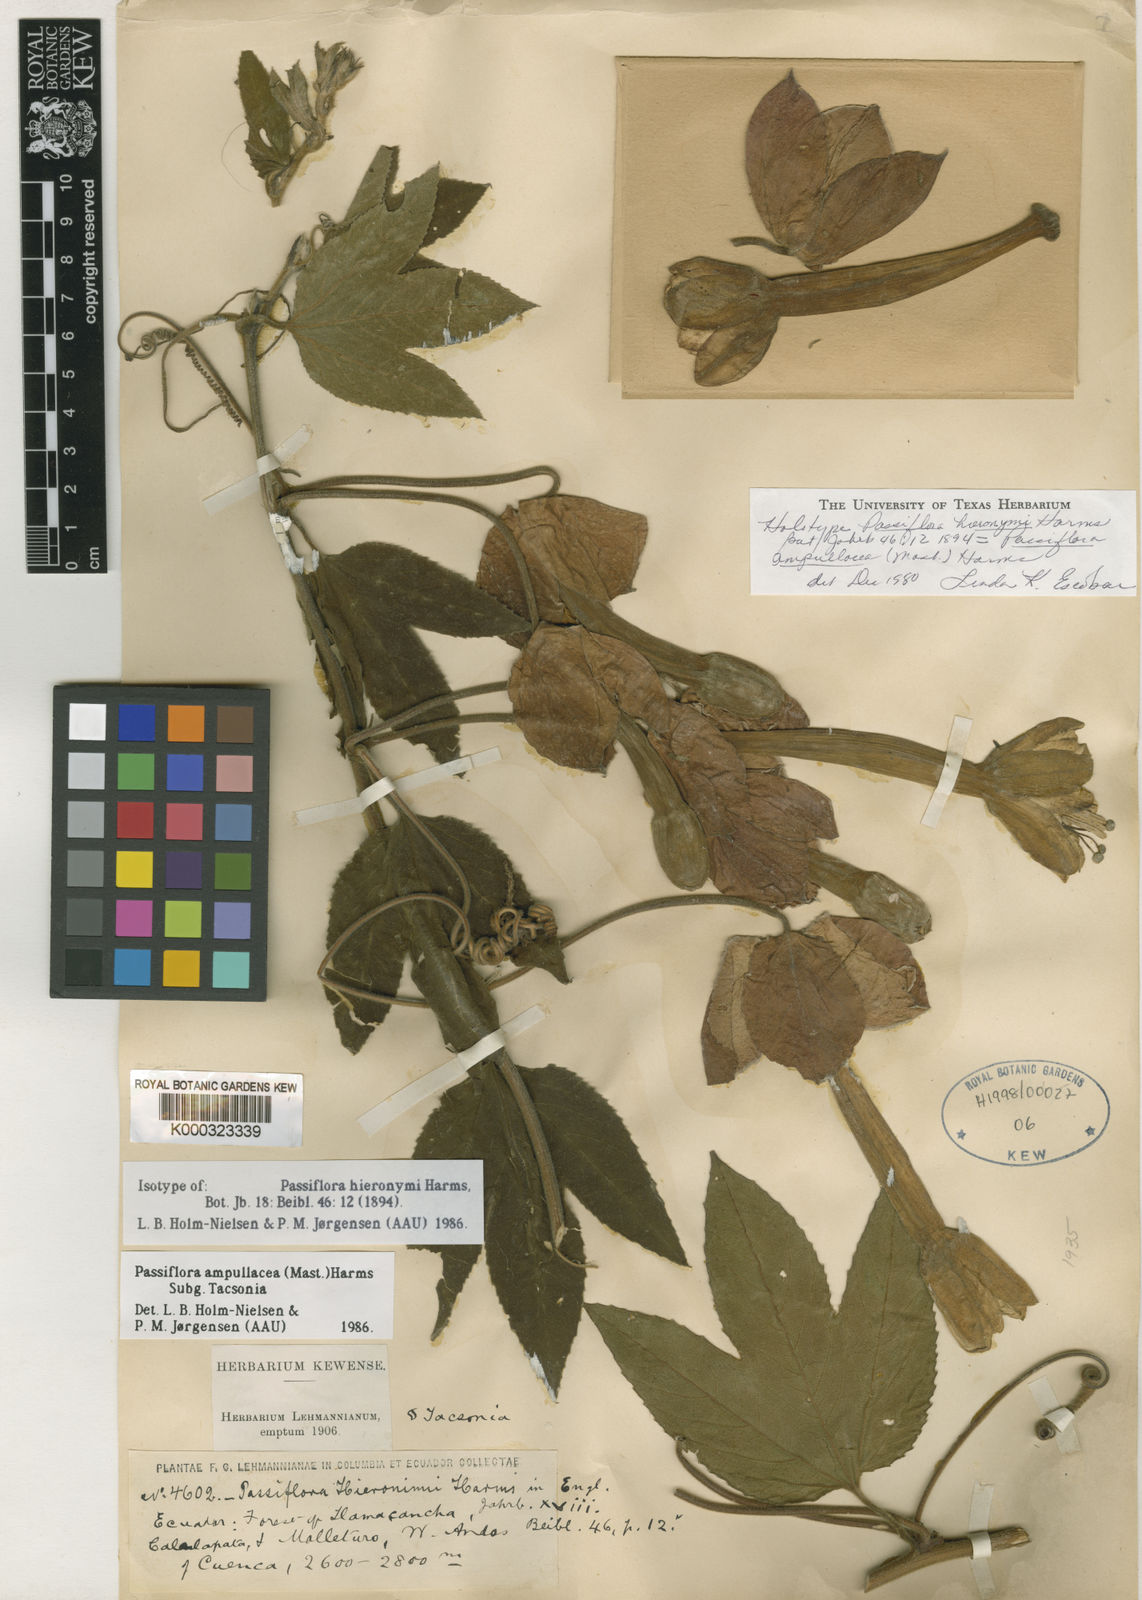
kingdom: Plantae
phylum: Tracheophyta
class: Magnoliopsida
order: Malpighiales
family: Passifloraceae
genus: Passiflora
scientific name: Passiflora ampullacea
